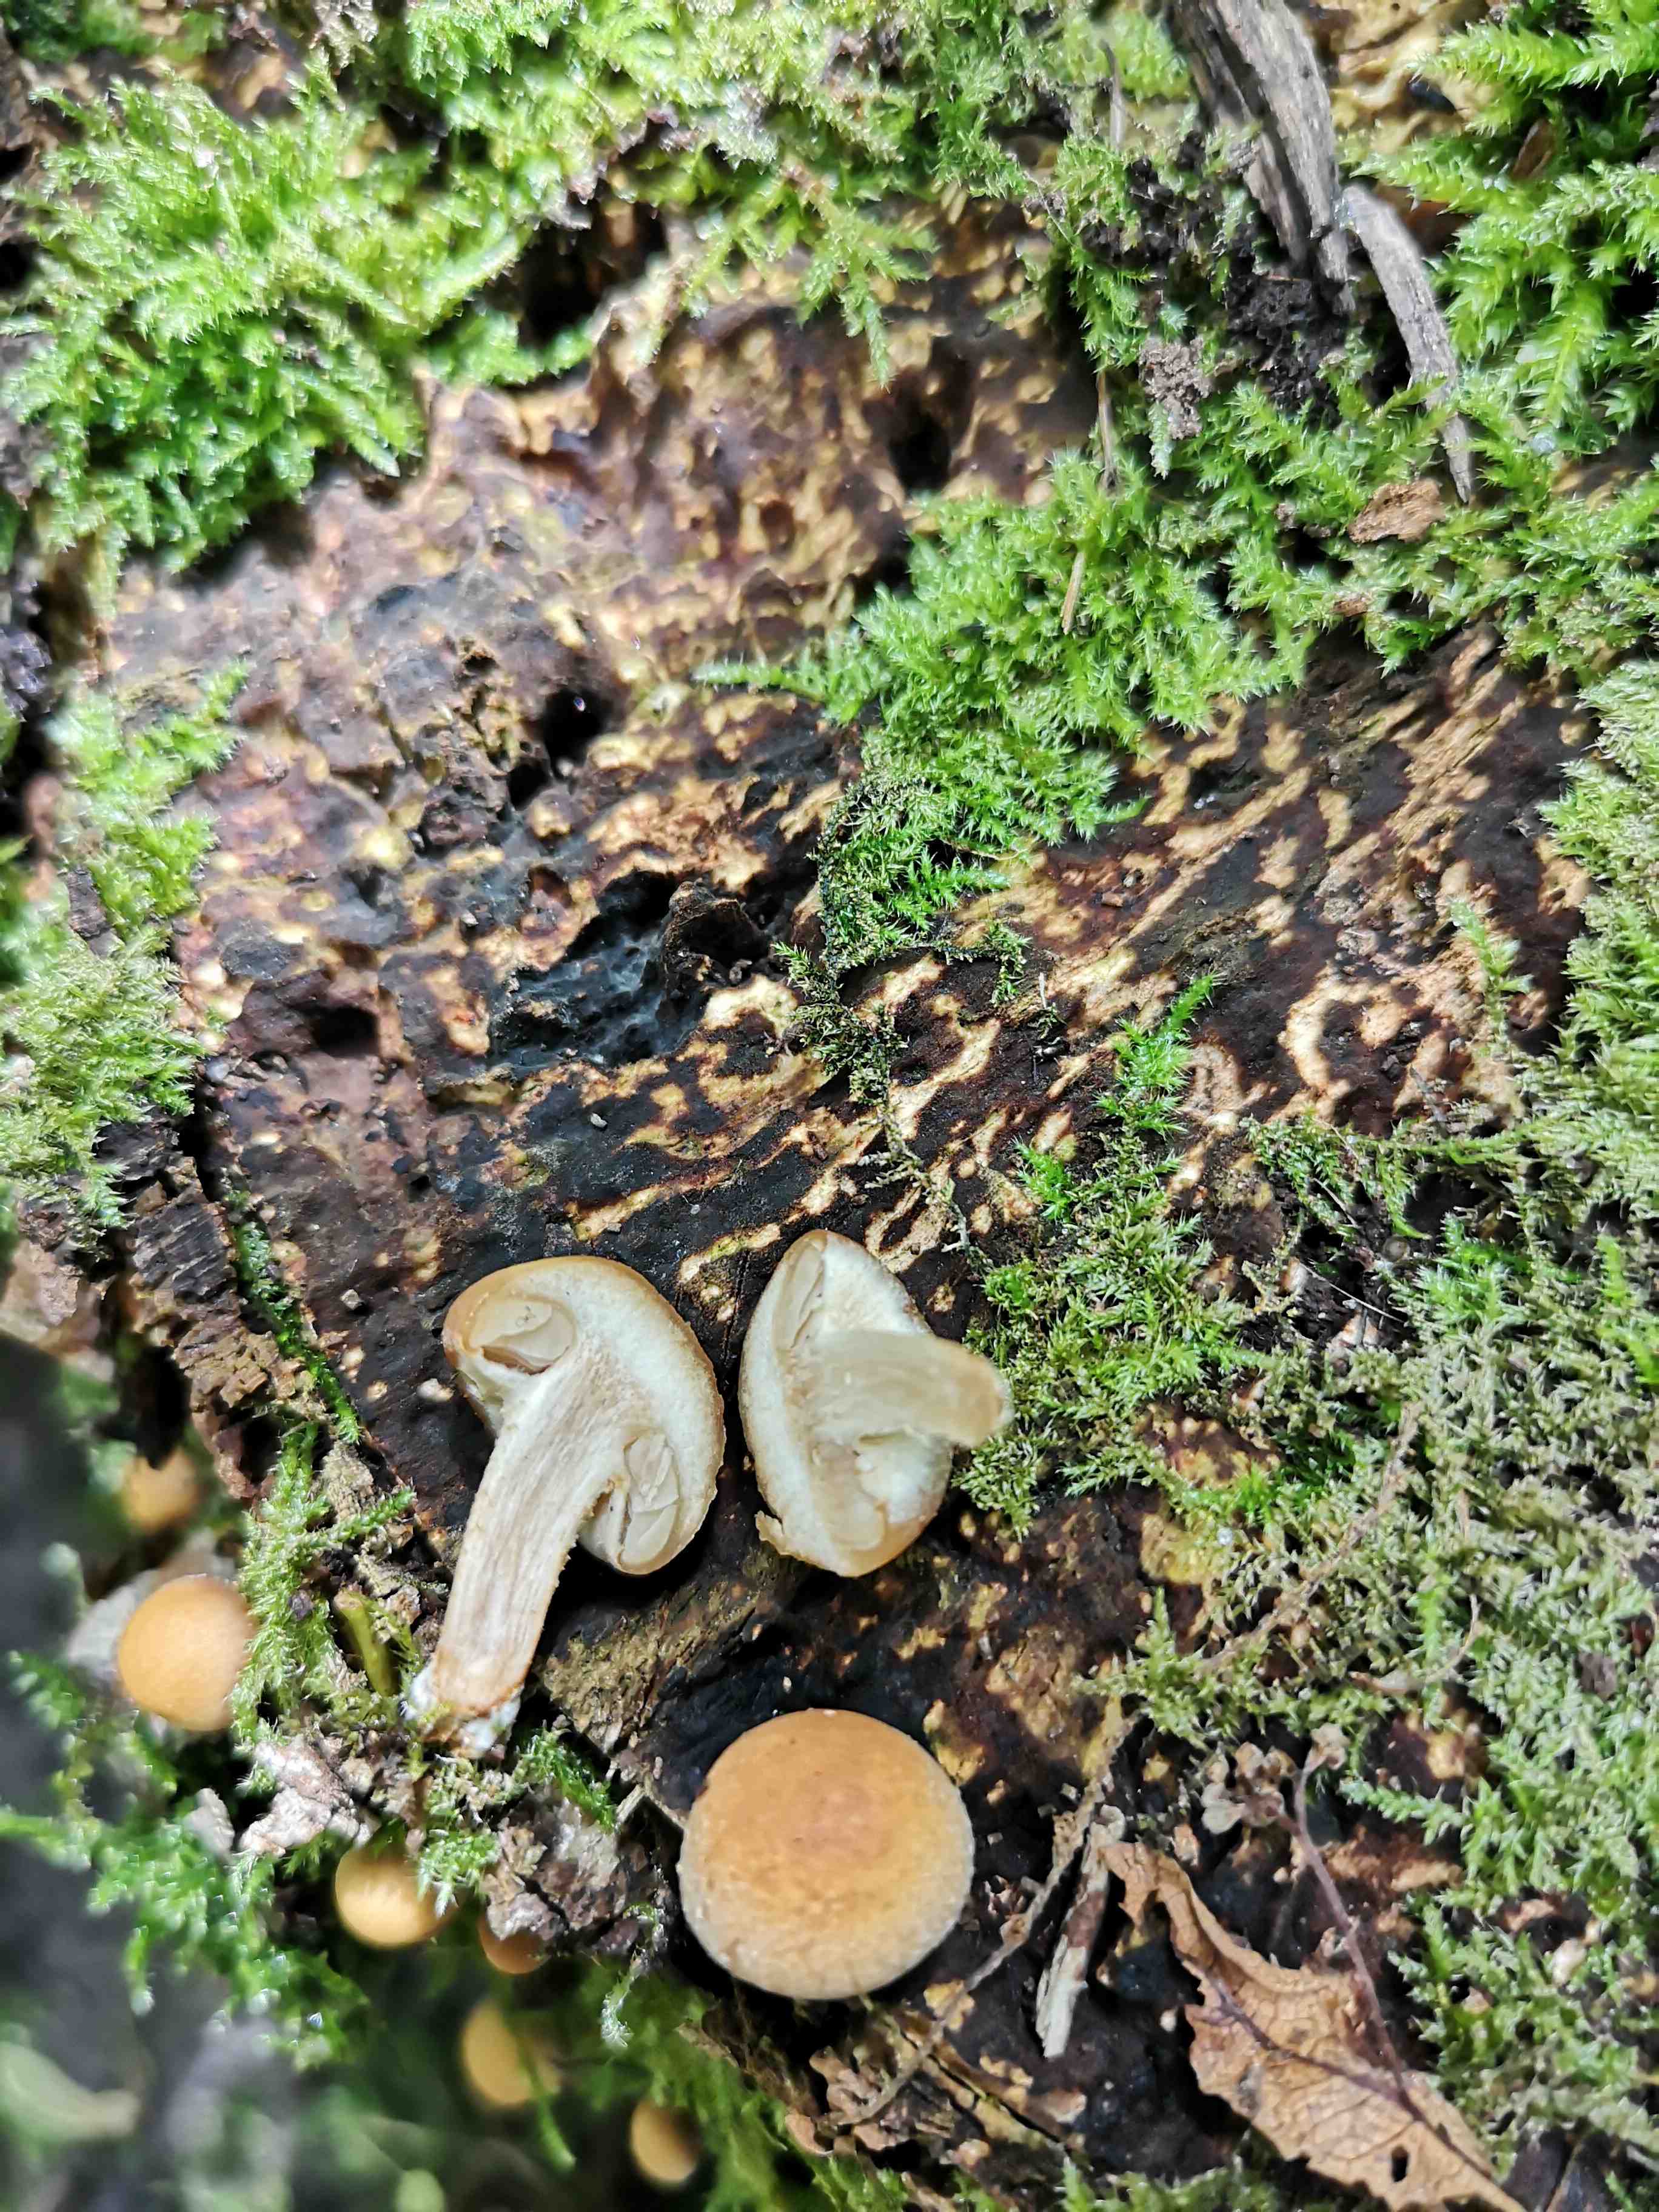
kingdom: Fungi
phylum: Basidiomycota
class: Agaricomycetes
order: Agaricales
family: Strophariaceae
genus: Kuehneromyces
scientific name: Kuehneromyces mutabilis
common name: foranderlig skælhat
